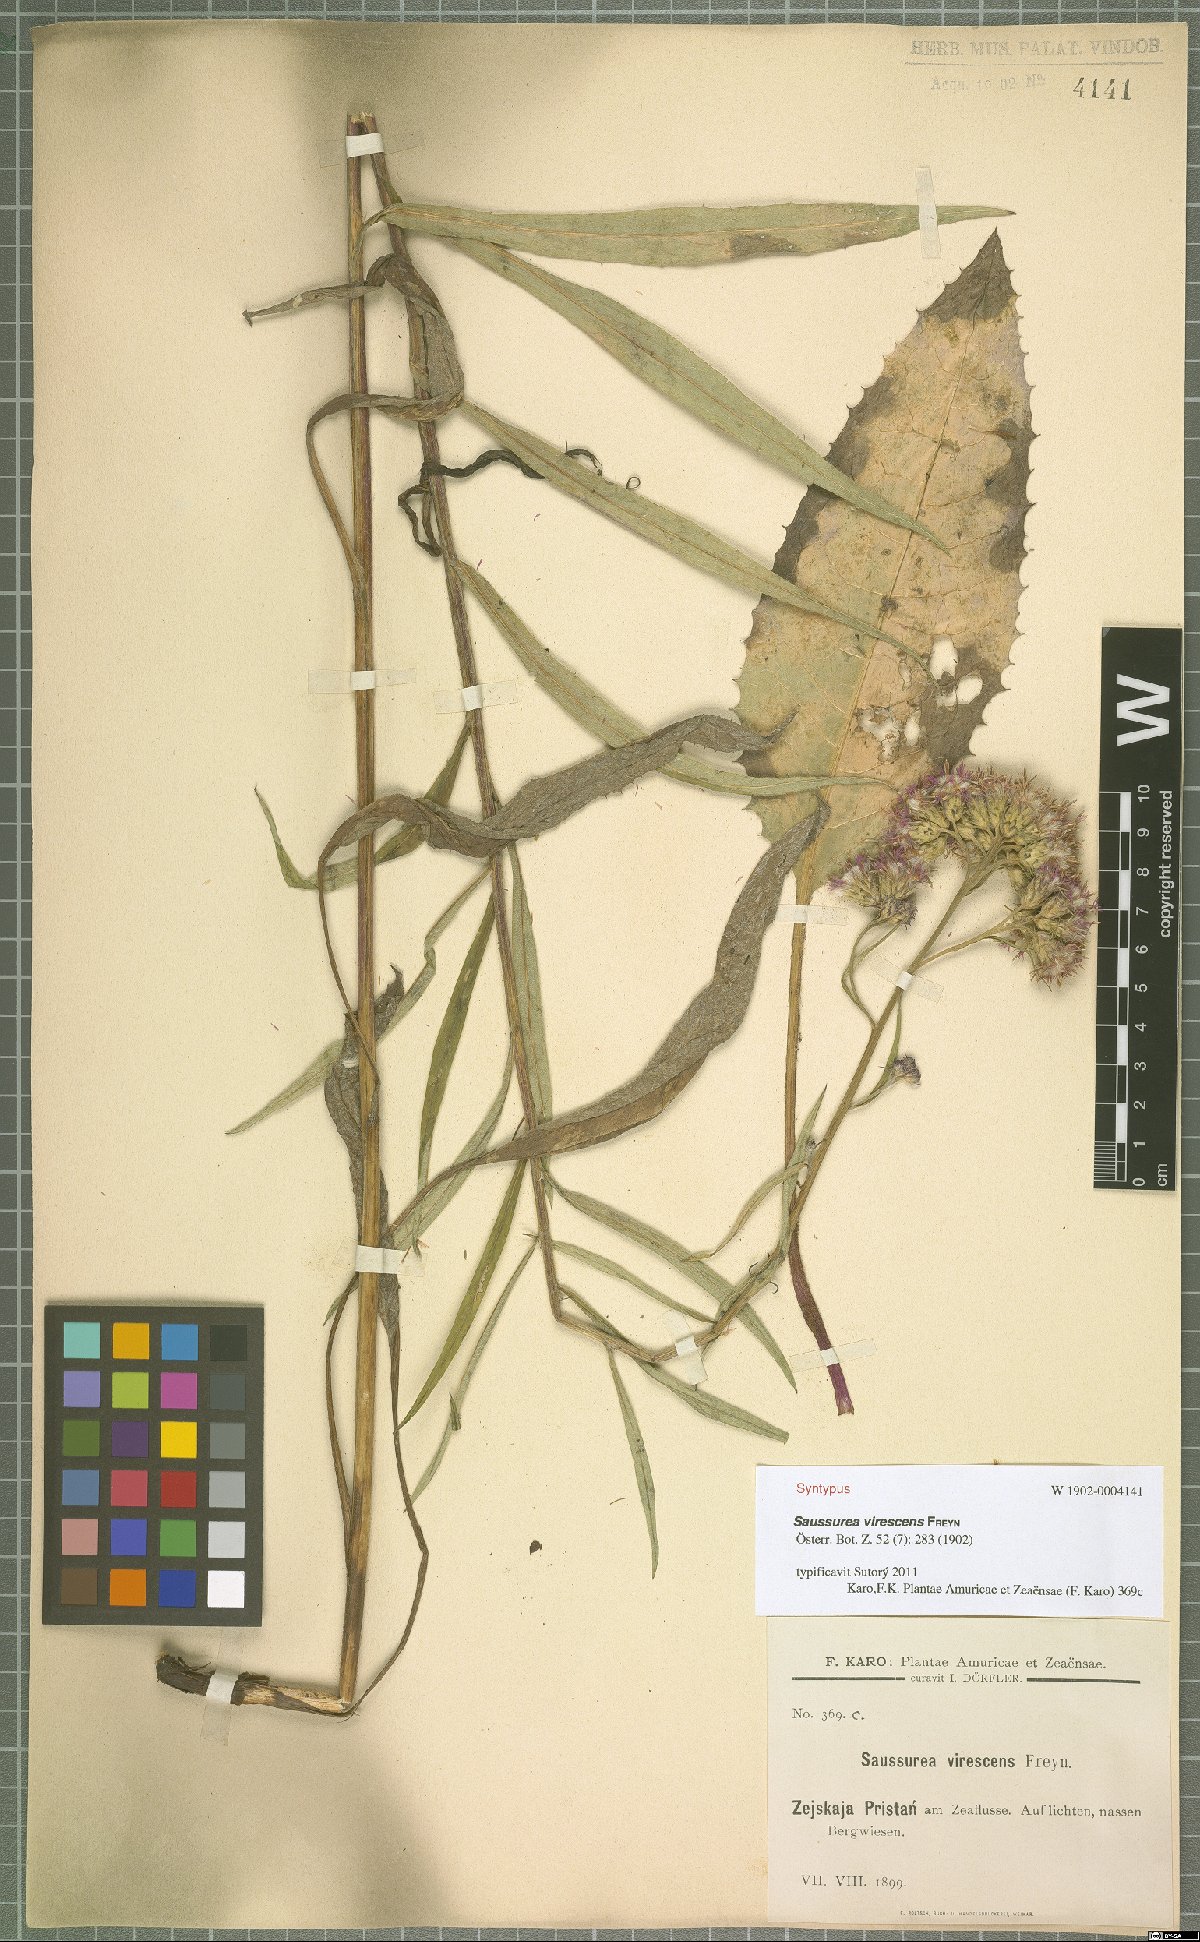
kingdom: Plantae
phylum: Tracheophyta
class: Magnoliopsida
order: Asterales
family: Asteraceae
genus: Saussurea
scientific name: Saussurea virescens
